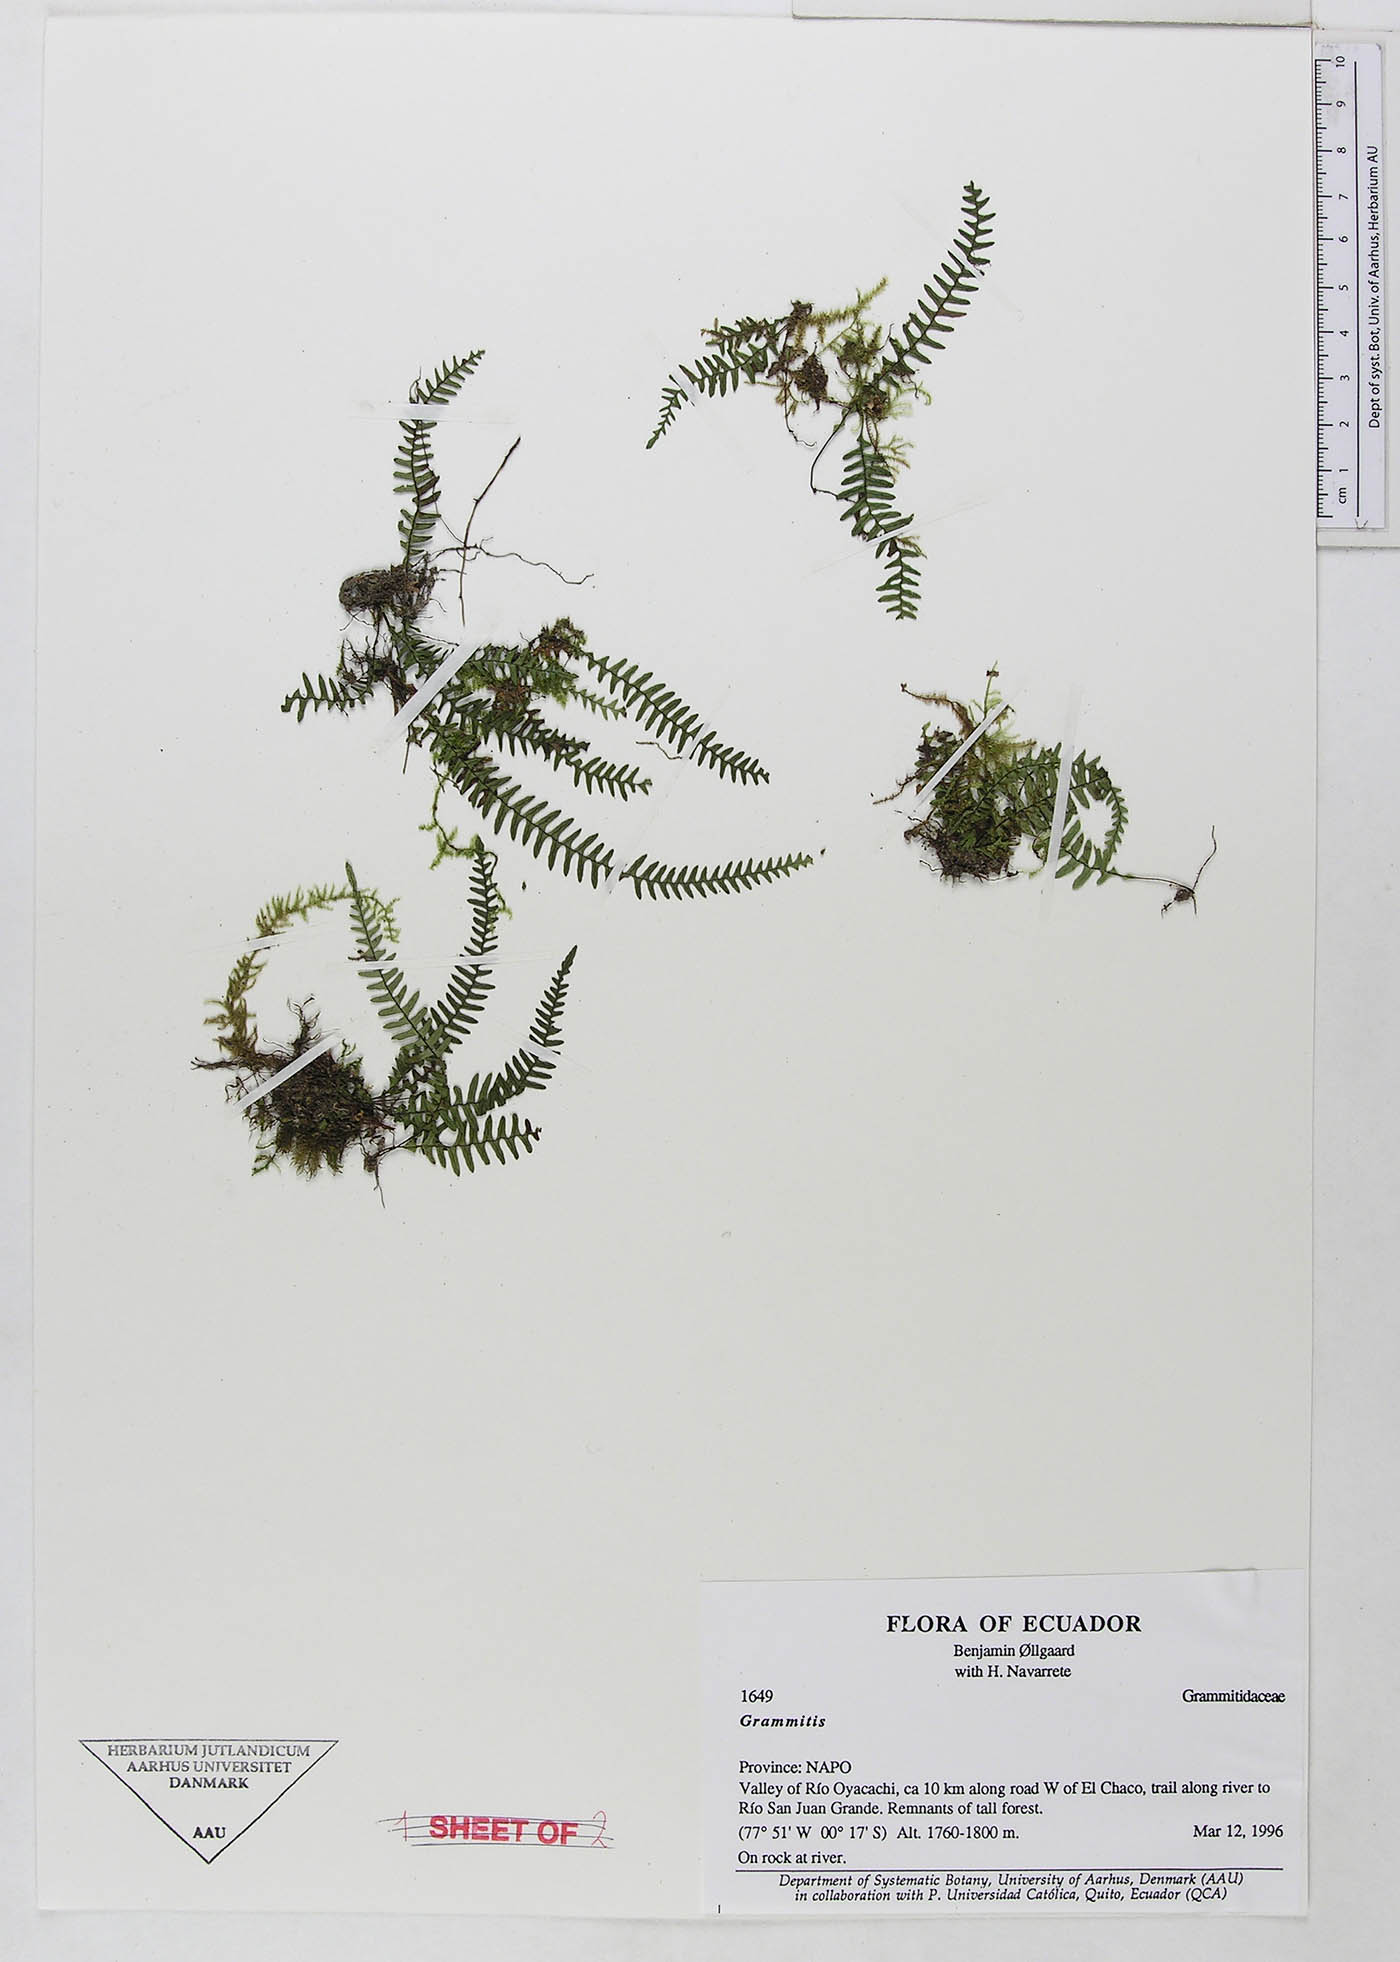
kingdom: Plantae
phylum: Tracheophyta
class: Polypodiopsida
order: Polypodiales
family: Polypodiaceae
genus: Ascogrammitis
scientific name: Ascogrammitis anfractuosa
